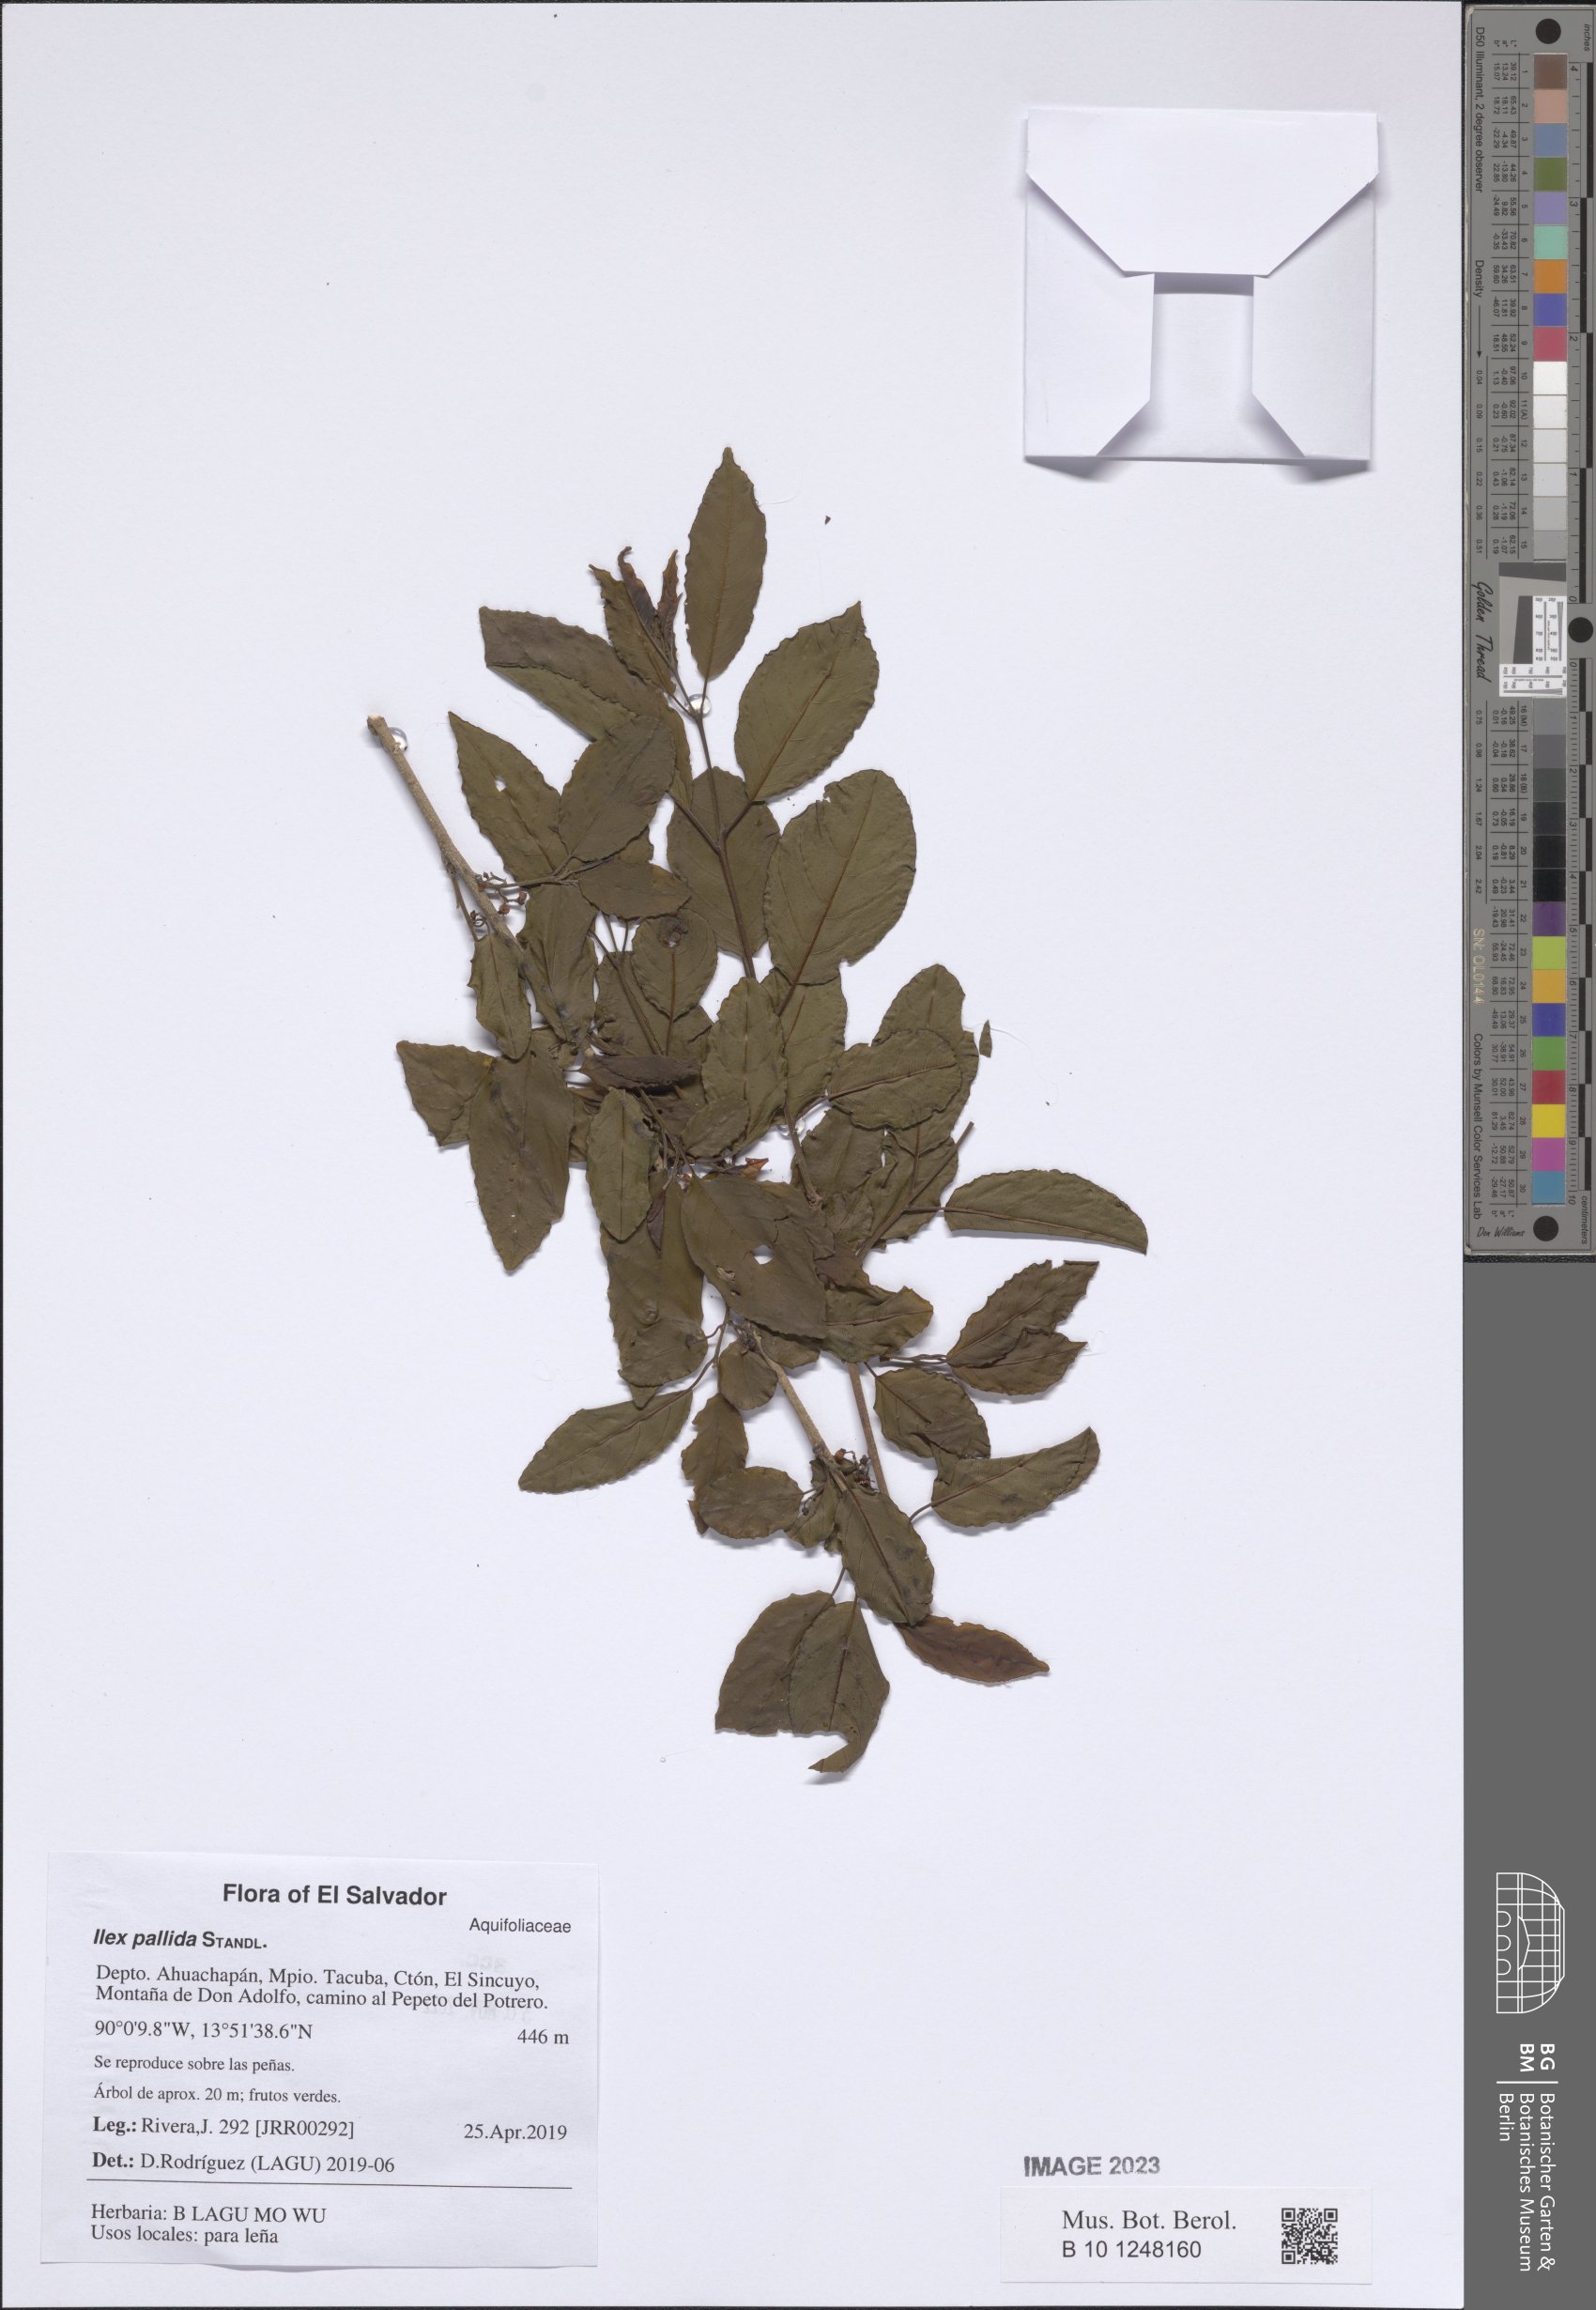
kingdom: Plantae
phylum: Tracheophyta
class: Magnoliopsida
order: Malpighiales
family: Salicaceae
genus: Flacourtia
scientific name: Flacourtia
